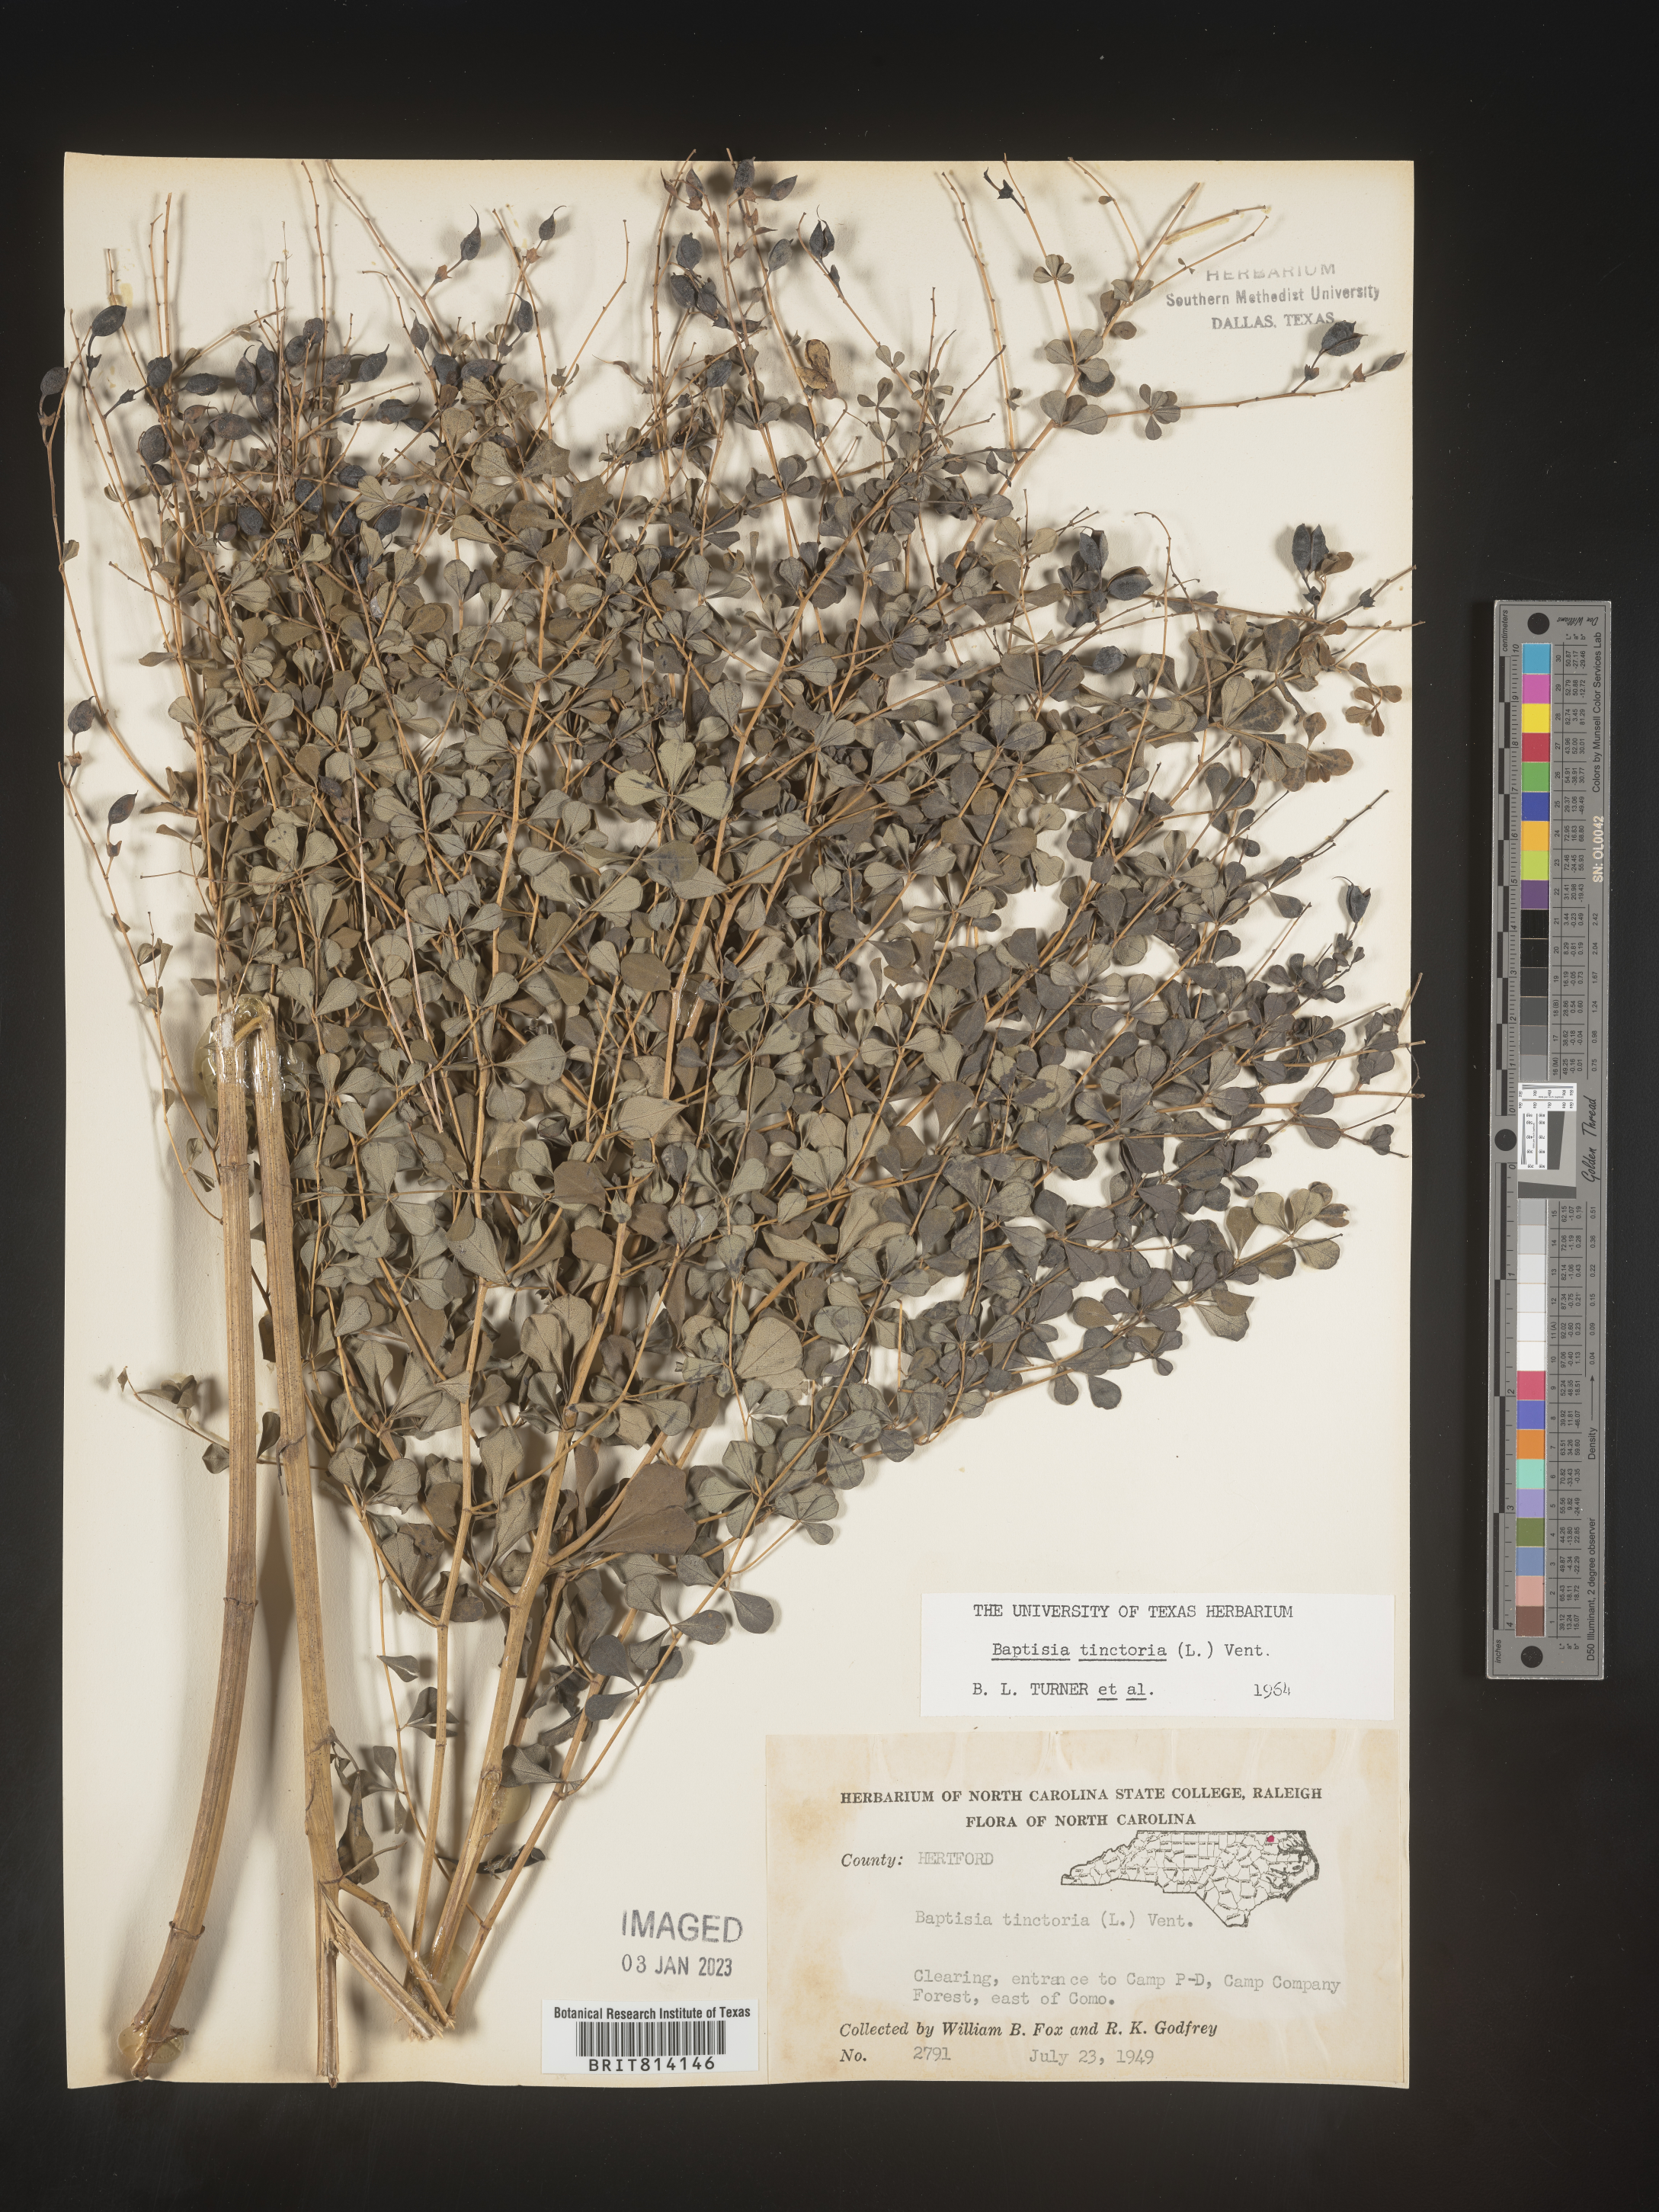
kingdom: Plantae
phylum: Tracheophyta
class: Magnoliopsida
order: Fabales
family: Fabaceae
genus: Baptisia
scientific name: Baptisia tinctoria
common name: Wild indigo
